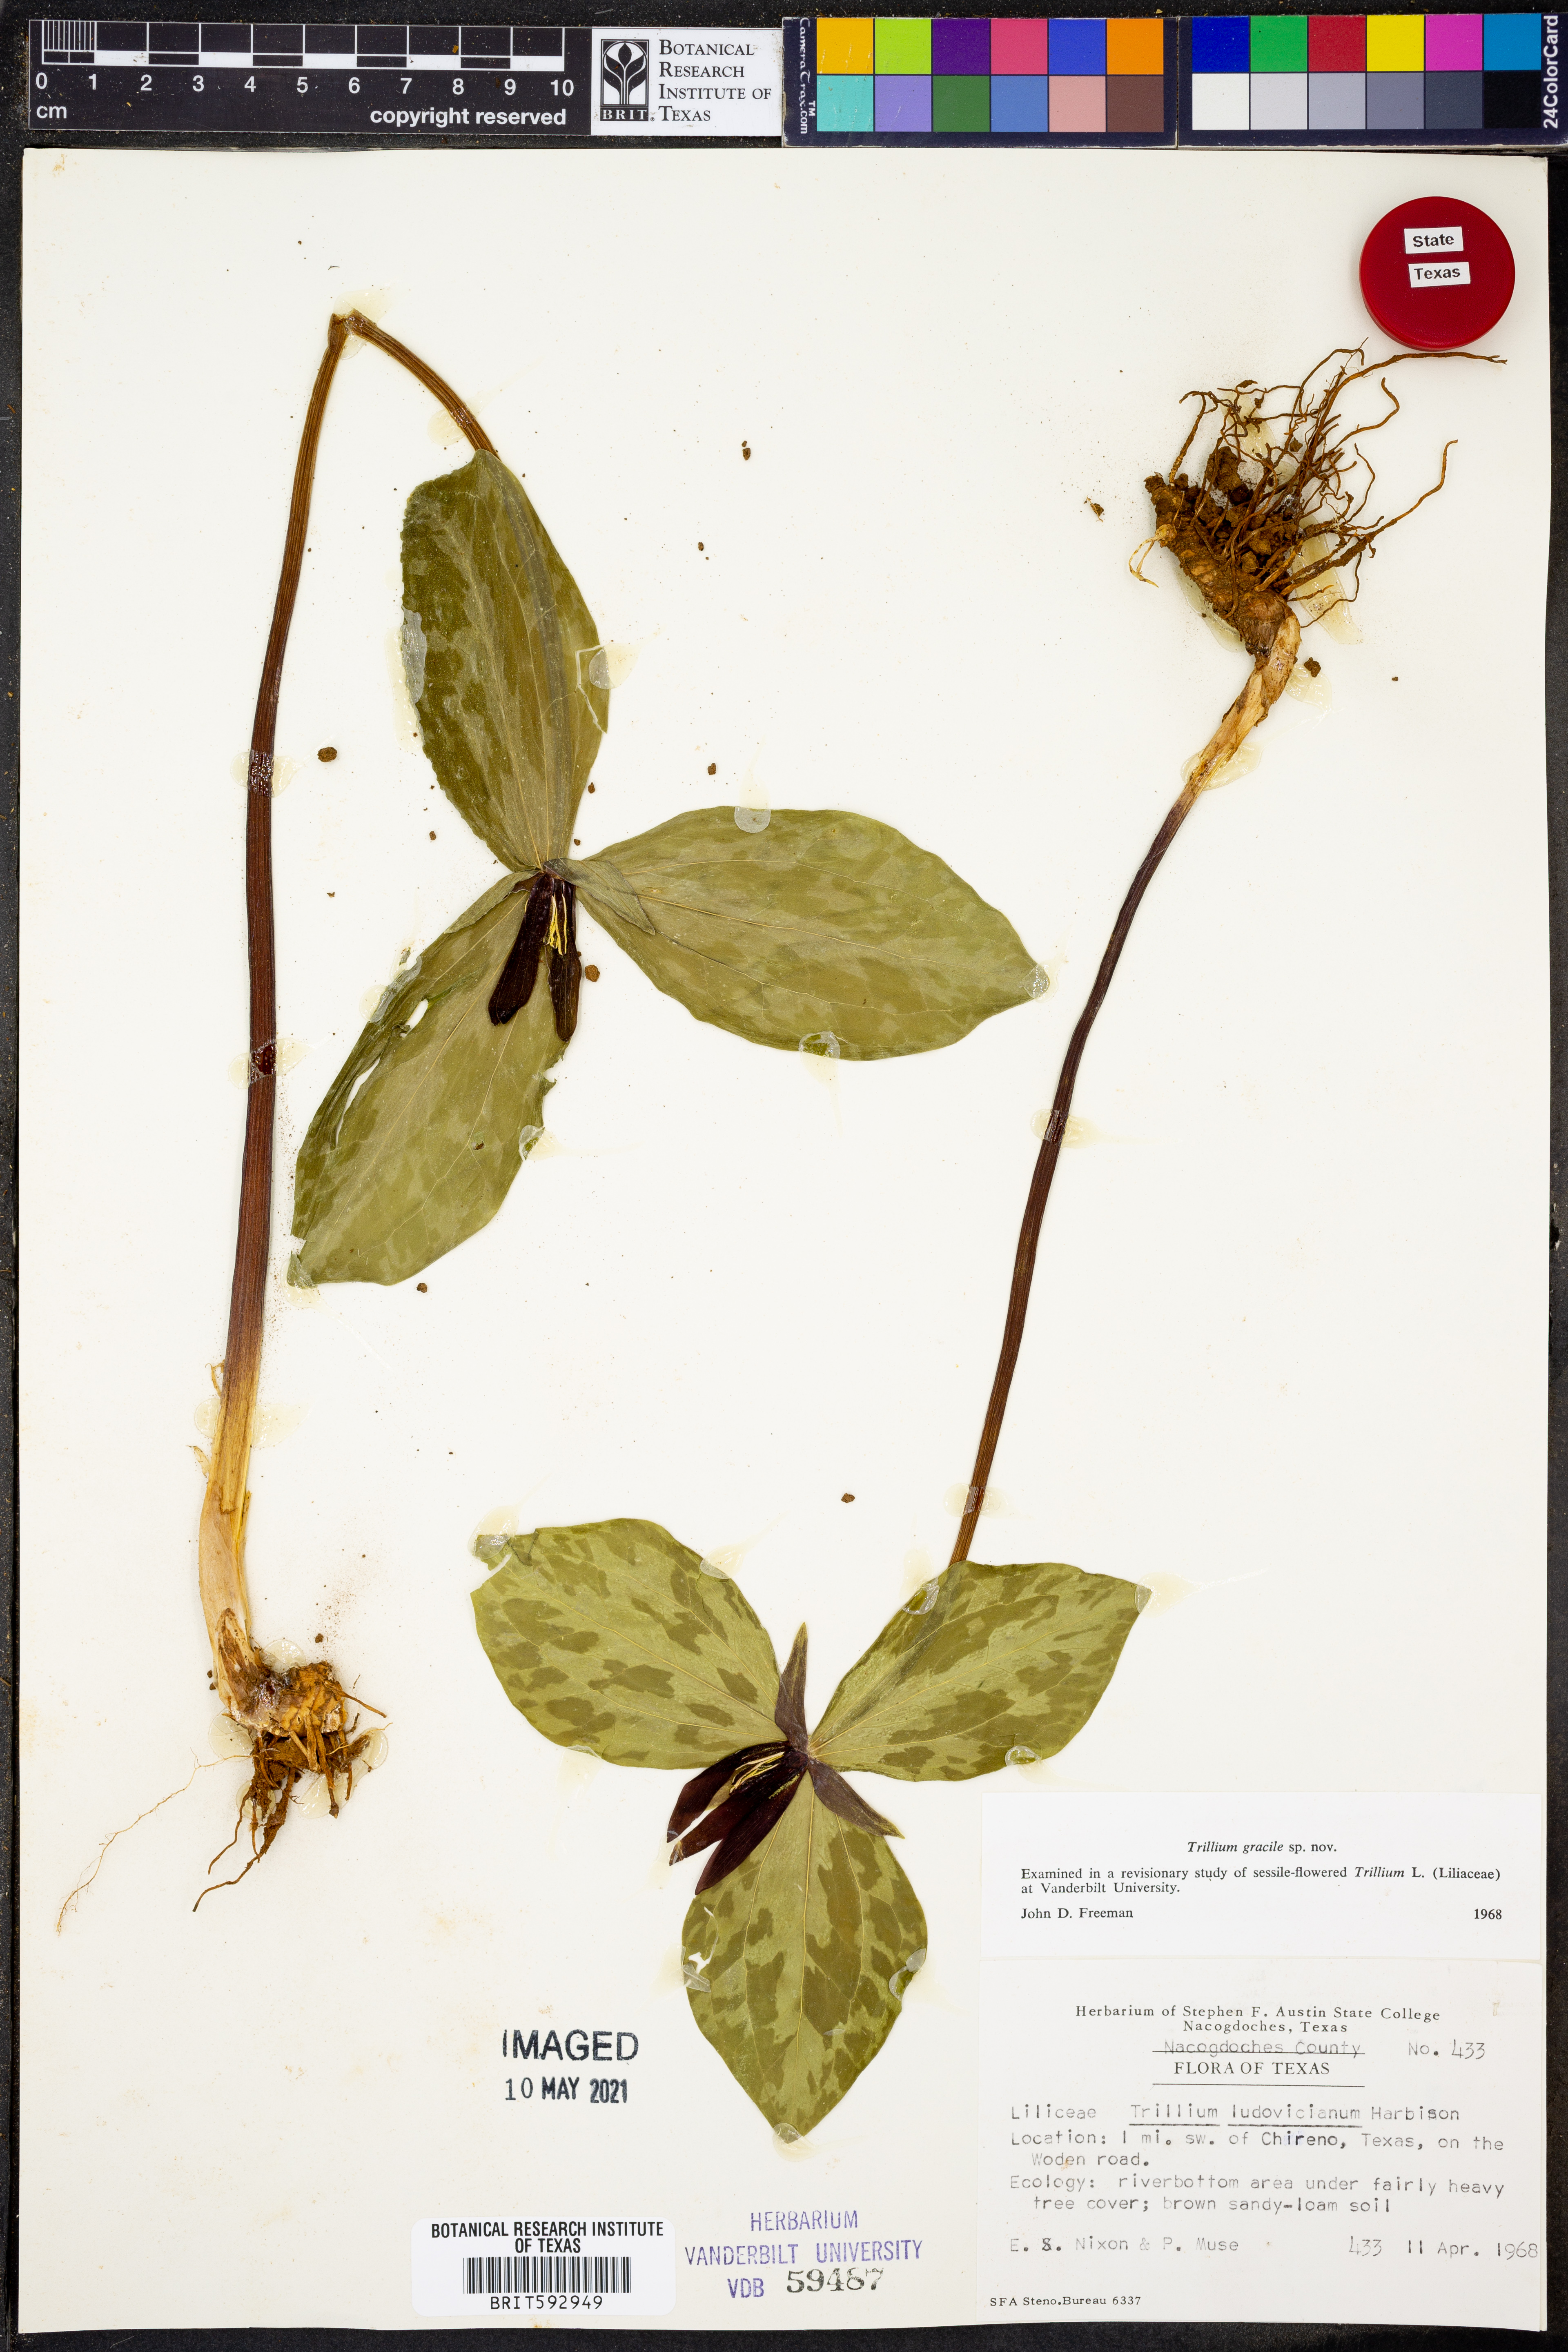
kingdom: Plantae
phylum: Tracheophyta
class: Liliopsida
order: Liliales
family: Melanthiaceae
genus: Trillium
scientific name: Trillium gracile
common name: Graceful trillium
